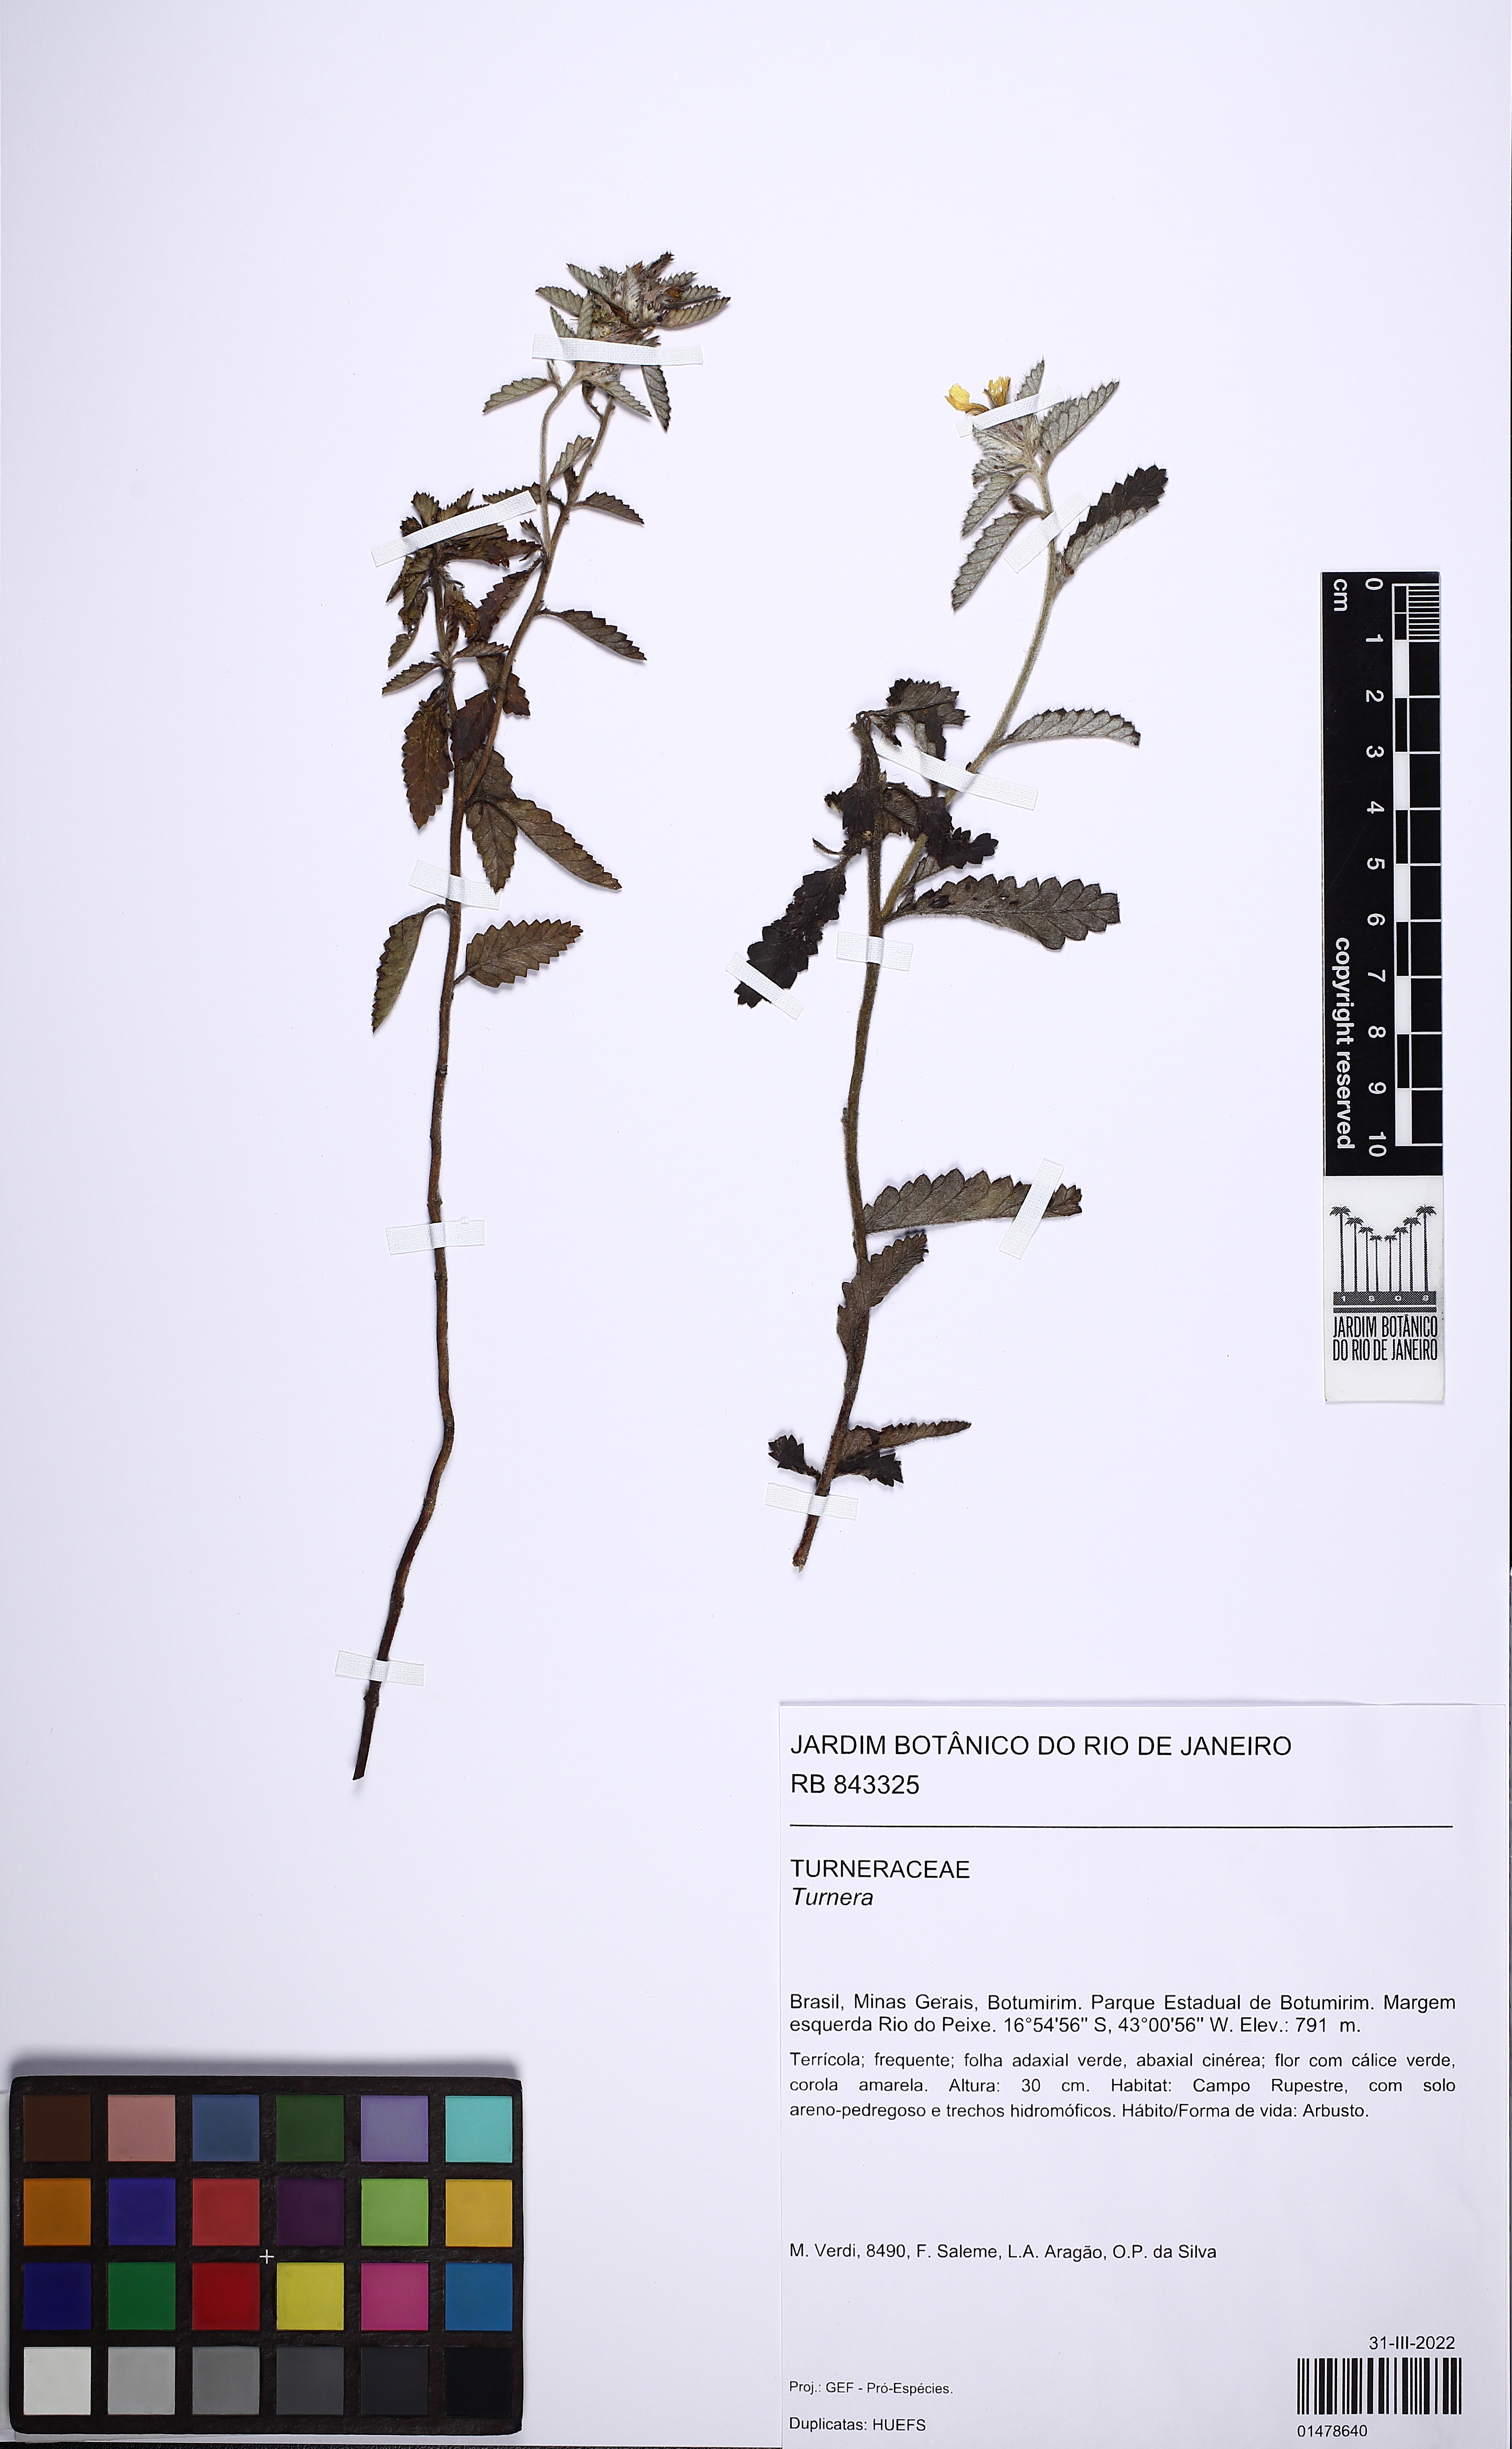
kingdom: Plantae
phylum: Tracheophyta
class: Magnoliopsida
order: Malpighiales
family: Turneraceae
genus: Turnera
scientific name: Turnera
